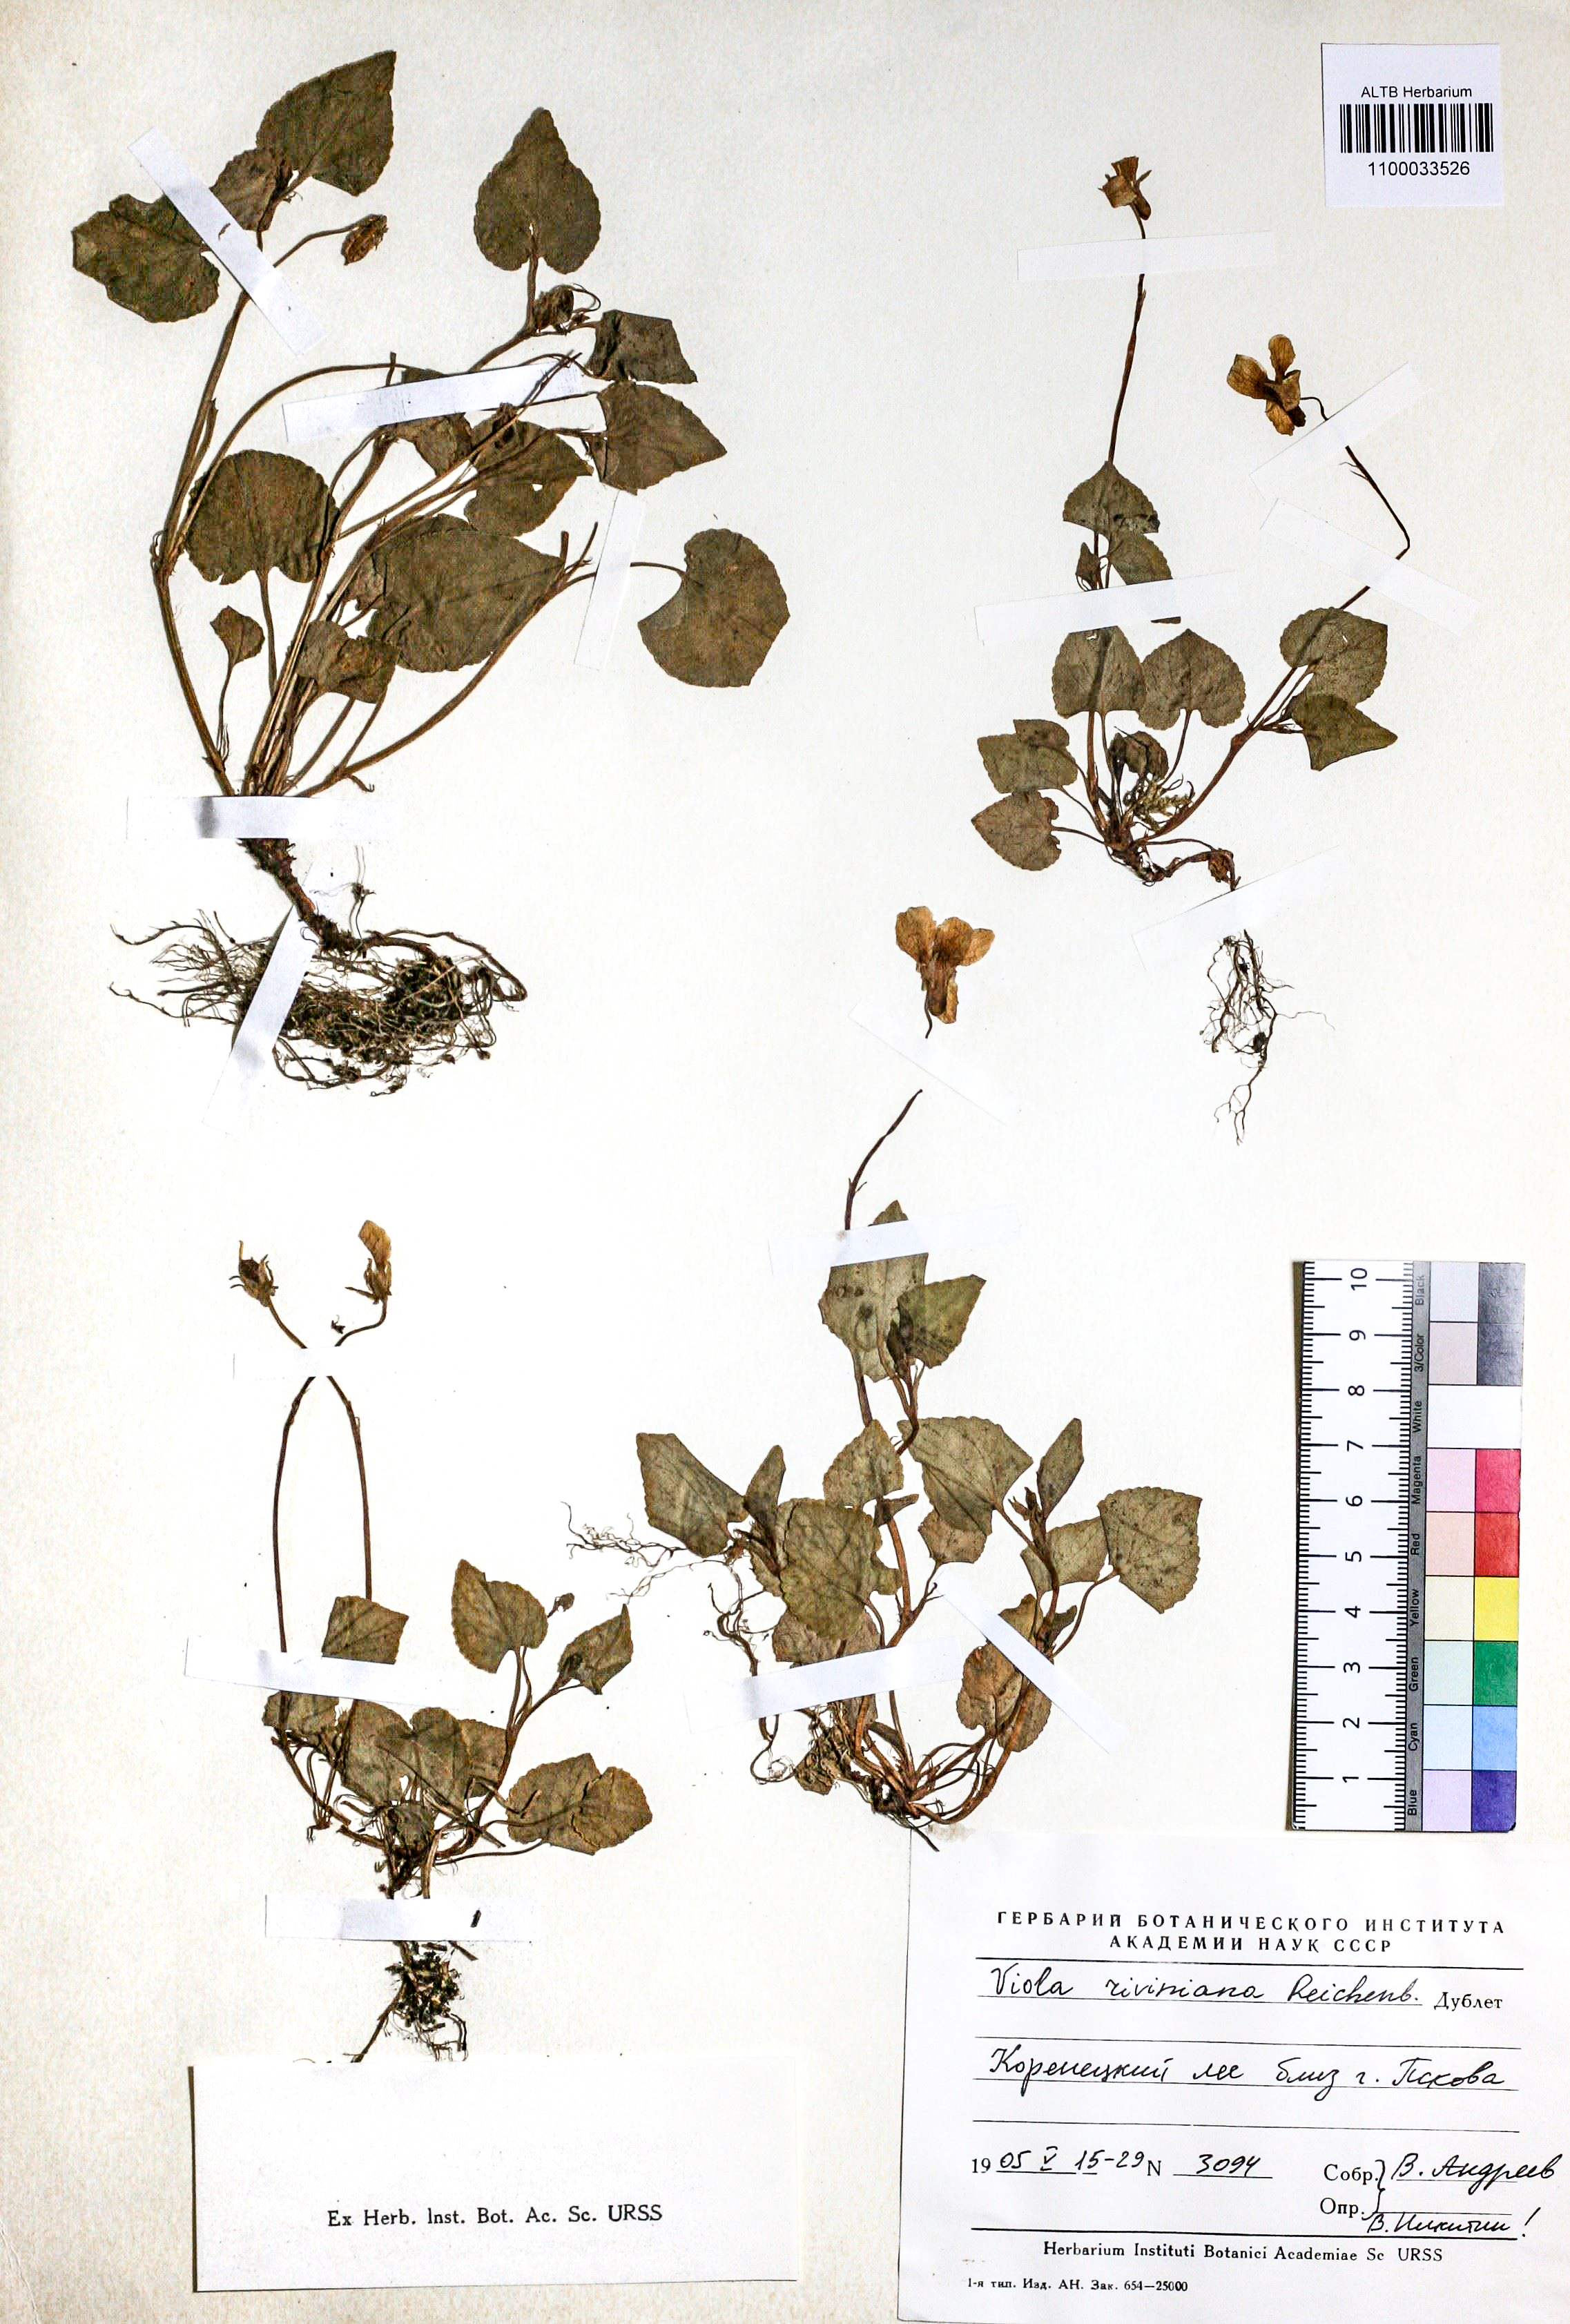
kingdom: Plantae
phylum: Tracheophyta
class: Magnoliopsida
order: Malpighiales
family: Violaceae
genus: Viola
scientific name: Viola riviniana
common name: Common dog-violet
